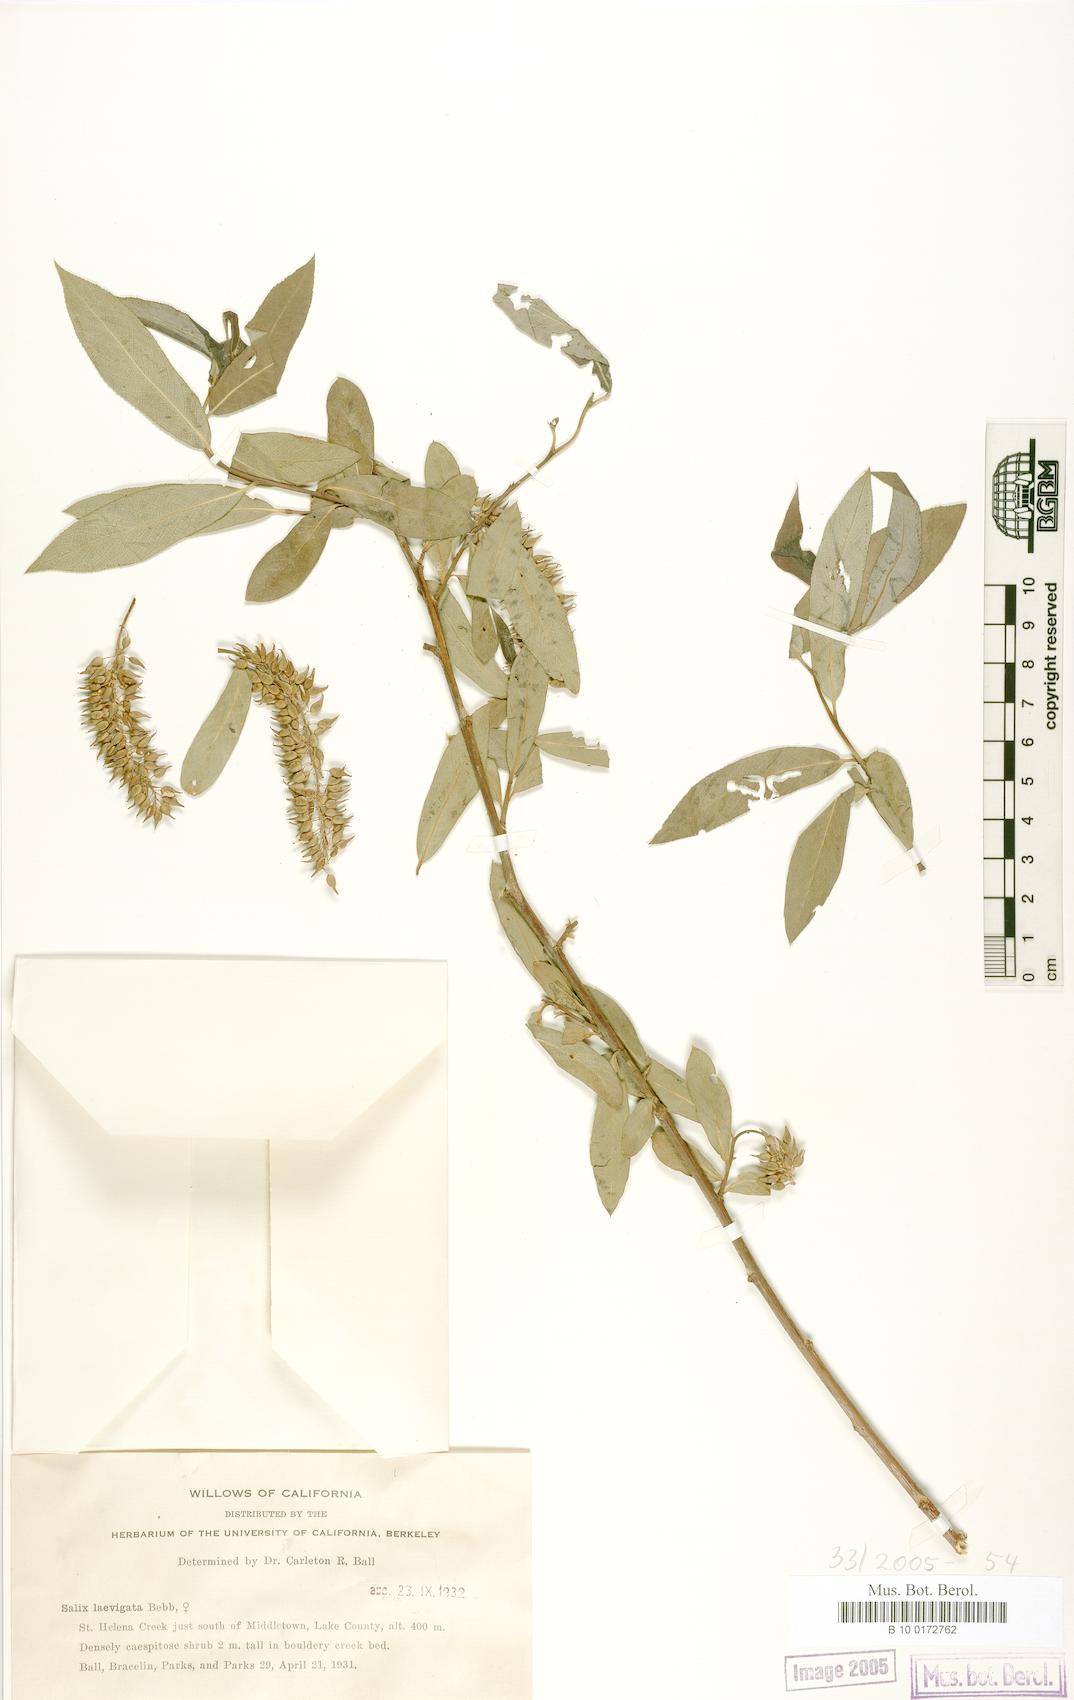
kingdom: Plantae
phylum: Tracheophyta
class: Magnoliopsida
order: Malpighiales
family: Salicaceae
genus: Salix
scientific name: Salix laevigata
